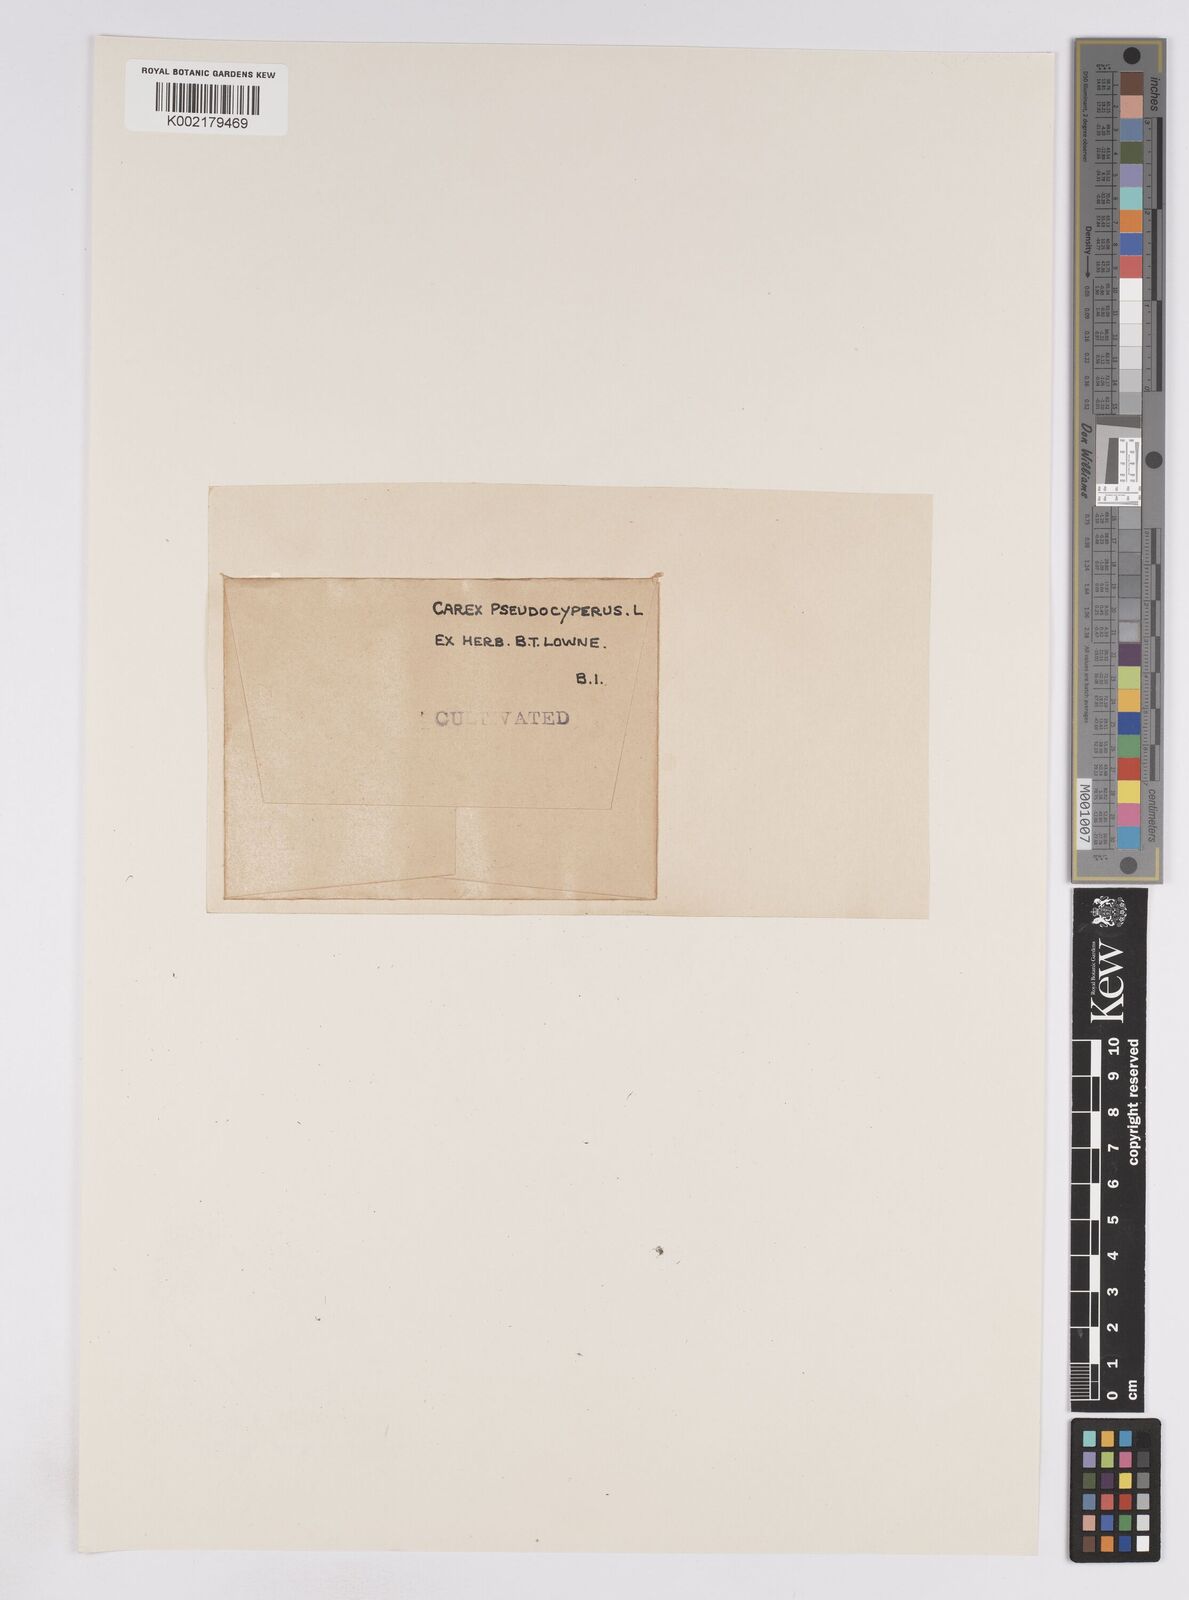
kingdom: Plantae
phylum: Tracheophyta
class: Liliopsida
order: Poales
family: Cyperaceae
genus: Carex
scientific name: Carex pseudocyperus
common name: Cyperus sedge
